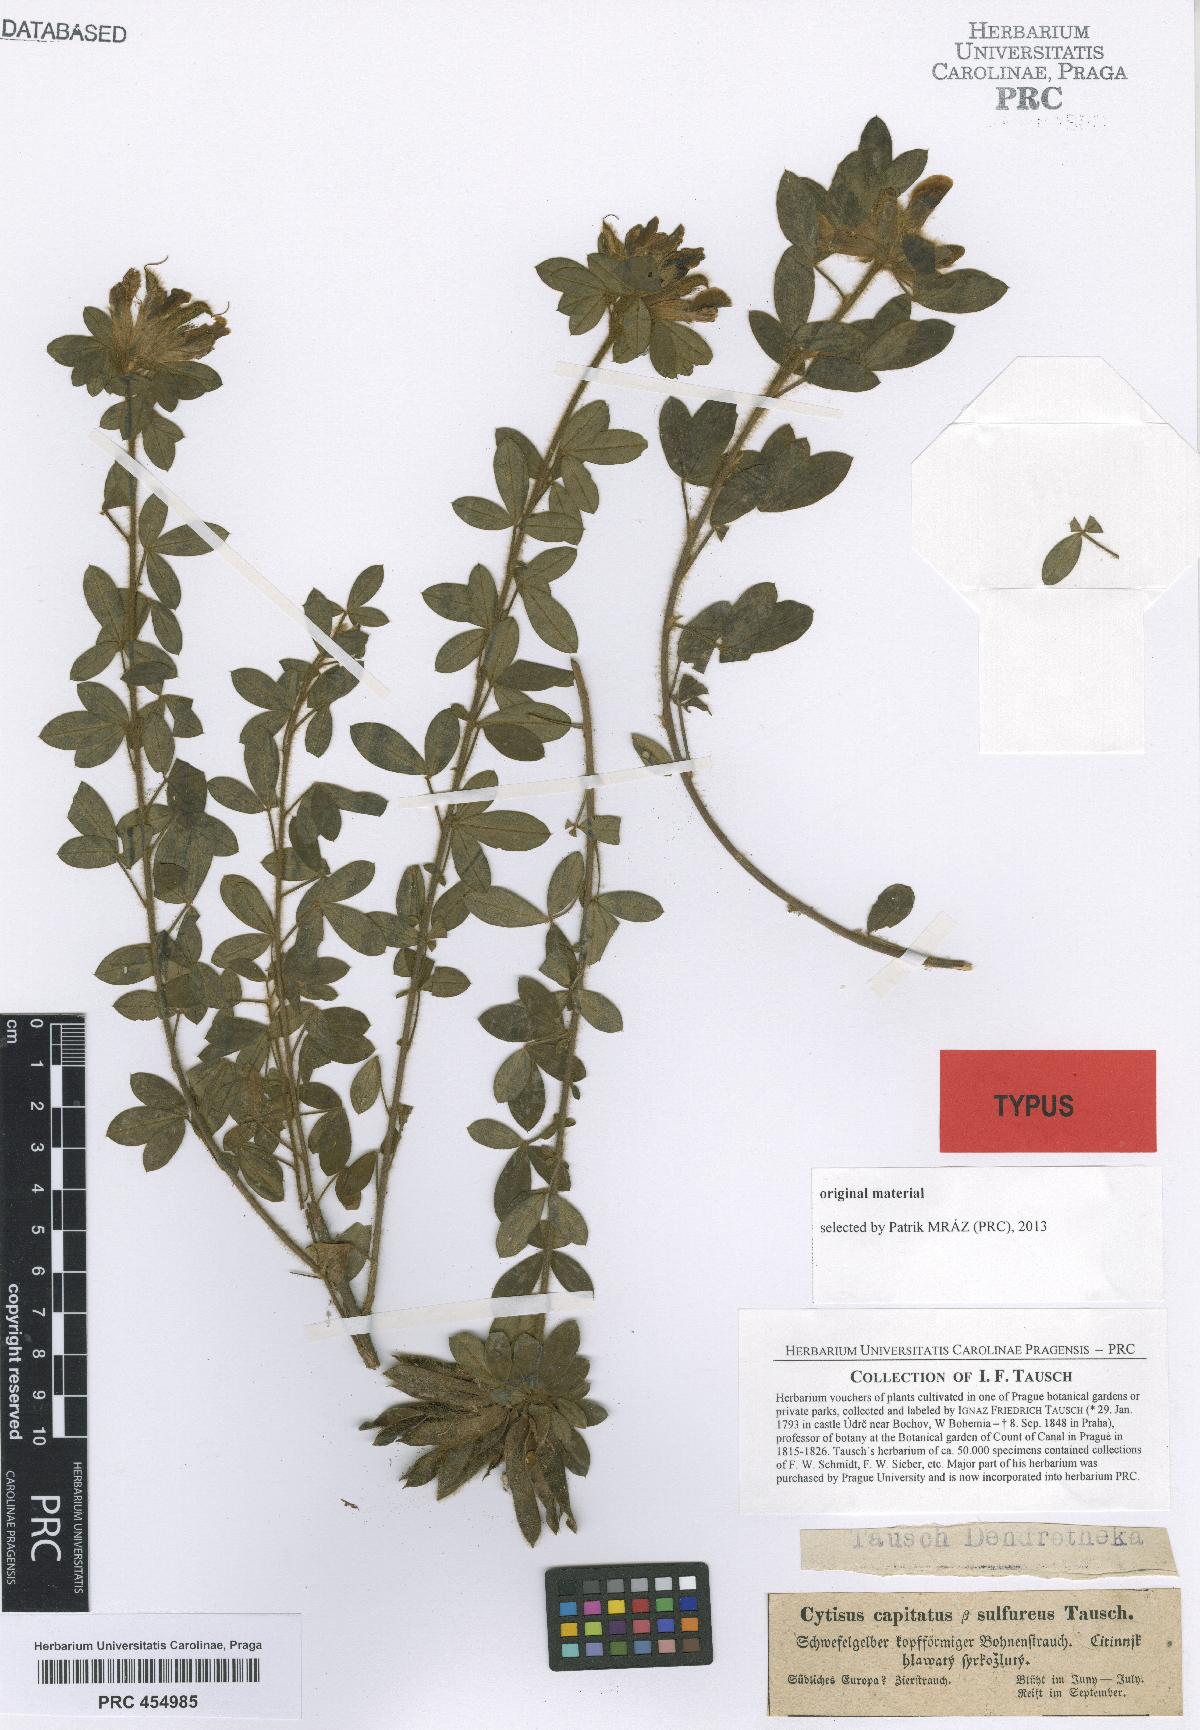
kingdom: Plantae
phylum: Tracheophyta
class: Magnoliopsida
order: Fabales
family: Fabaceae
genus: Chamaecytisus
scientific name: Chamaecytisus hirsutus
